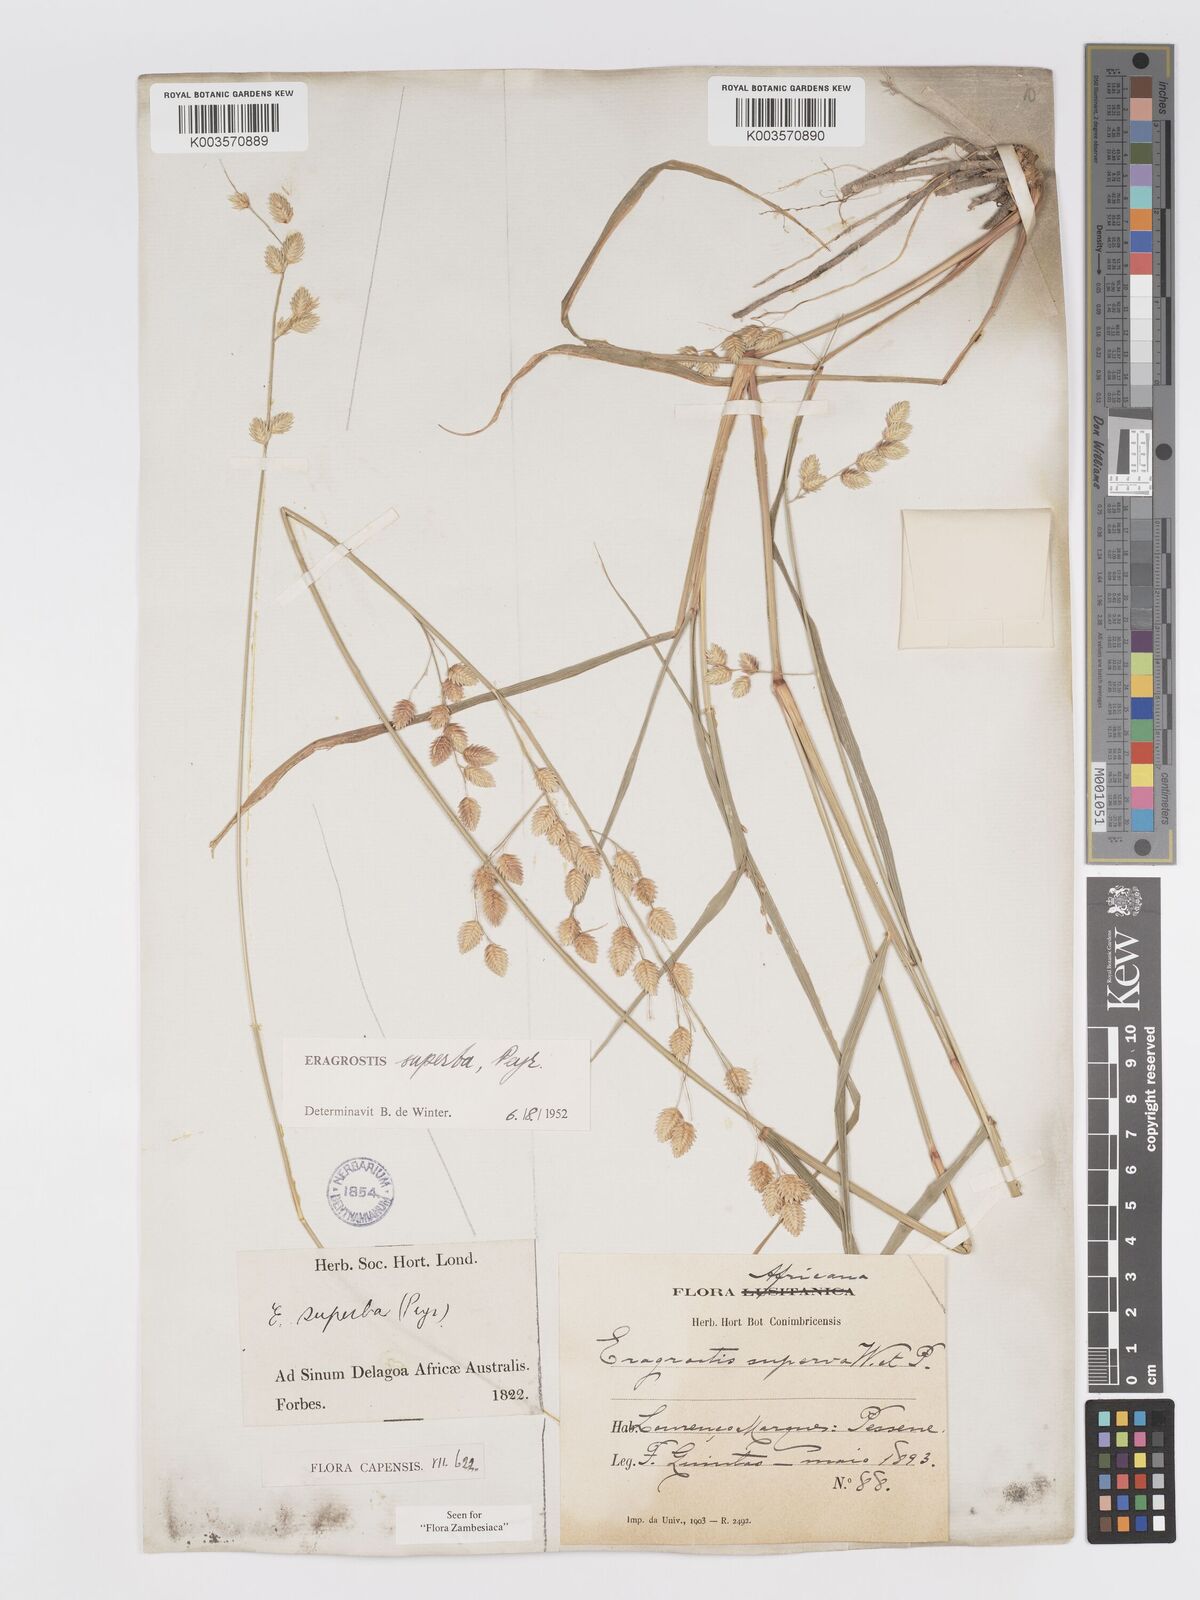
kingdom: Plantae
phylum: Tracheophyta
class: Liliopsida
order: Poales
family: Poaceae
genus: Eragrostis
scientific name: Eragrostis superba
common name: Wilman lovegrass
